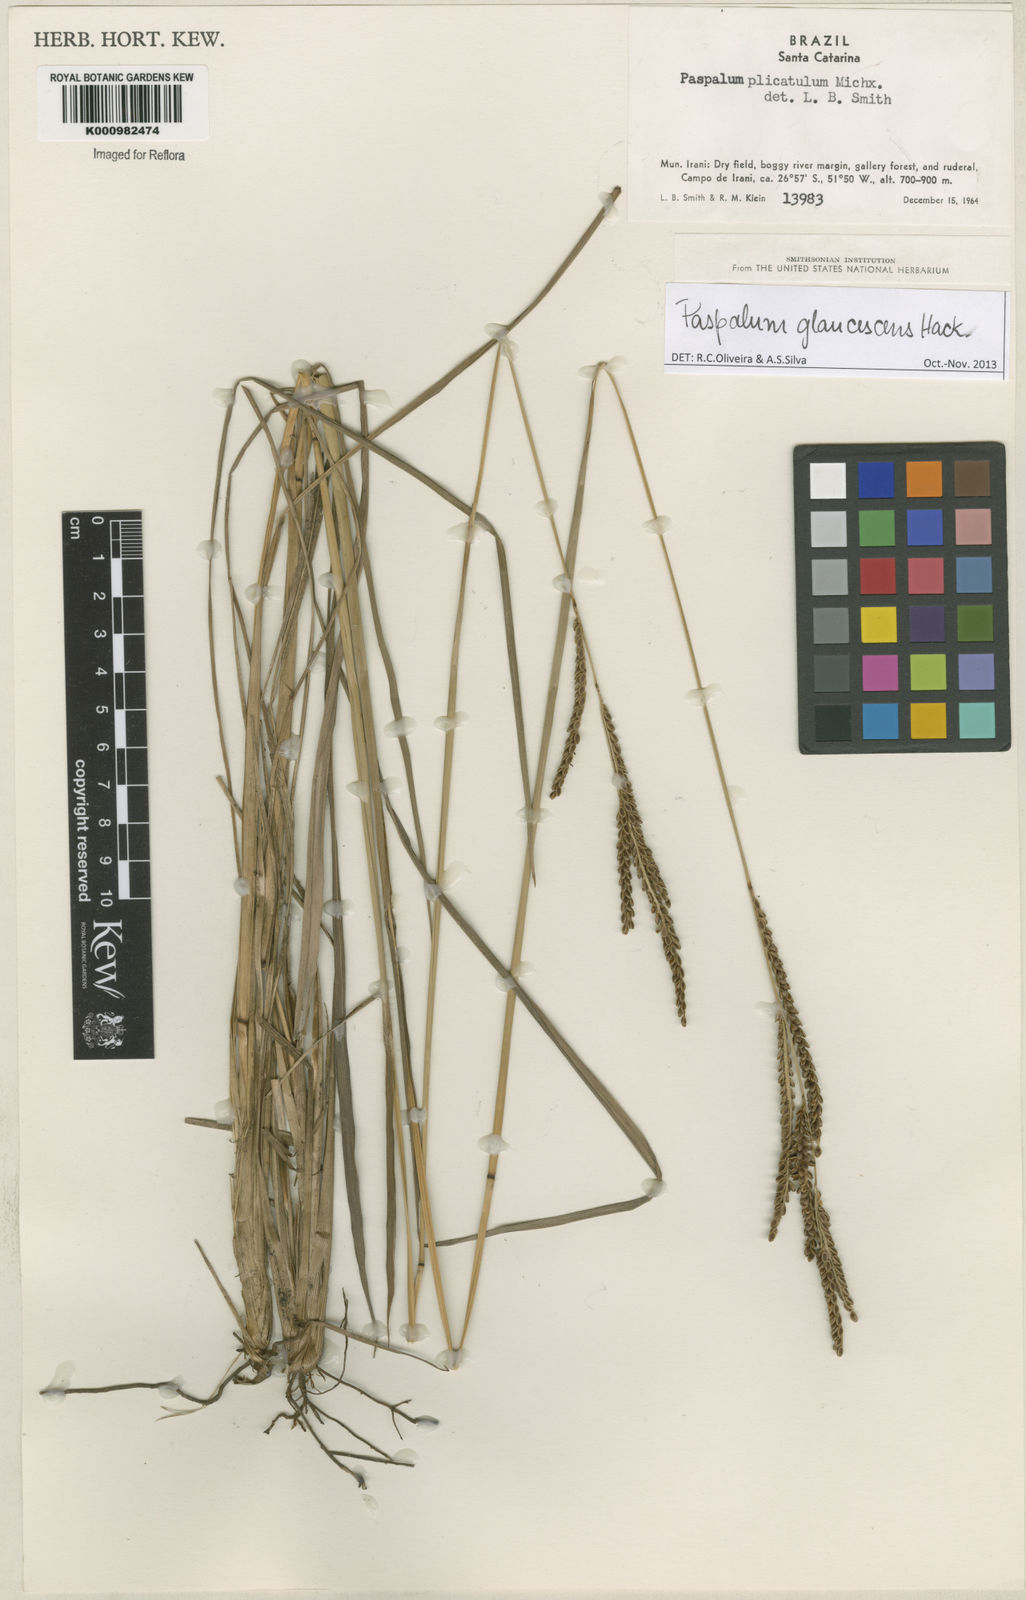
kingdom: Plantae
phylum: Tracheophyta
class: Liliopsida
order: Poales
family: Poaceae
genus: Paspalum
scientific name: Paspalum glaucescens
